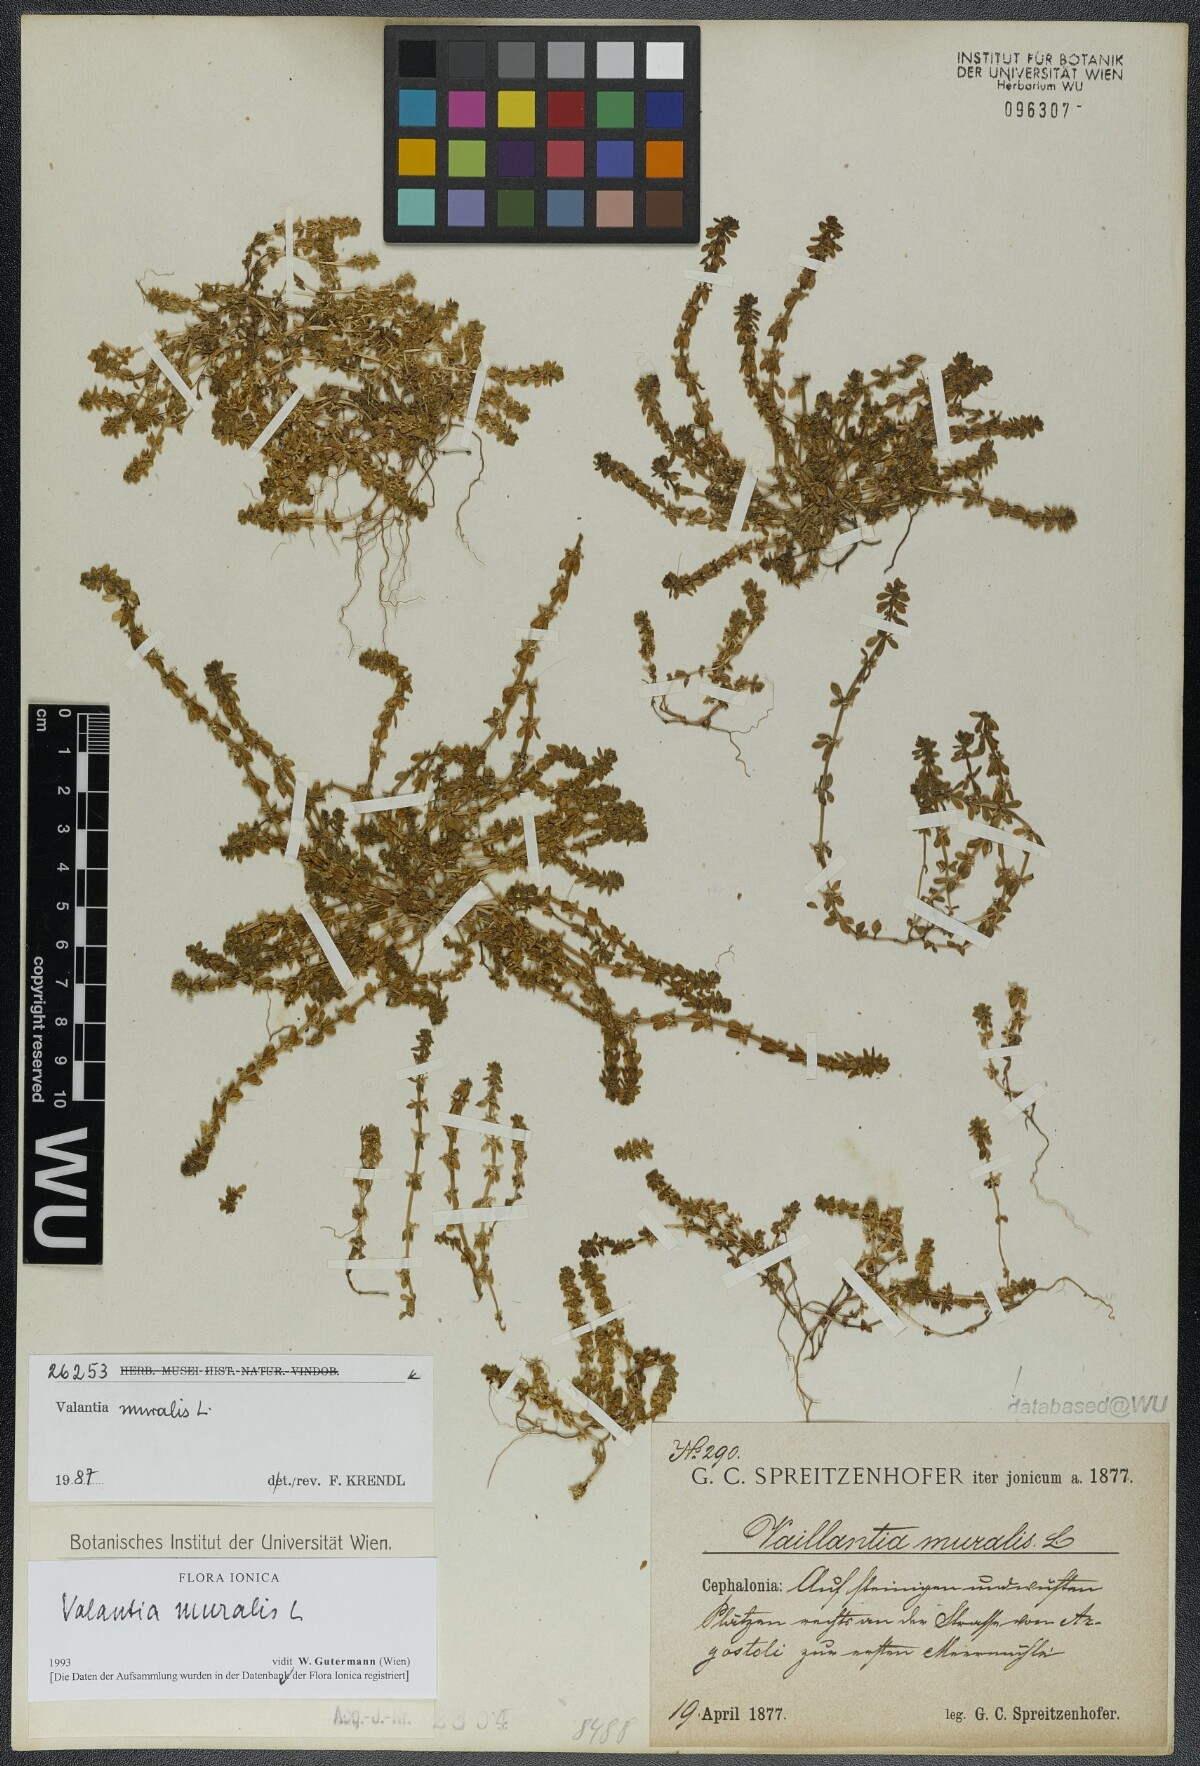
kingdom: Plantae
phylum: Tracheophyta
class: Magnoliopsida
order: Gentianales
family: Rubiaceae
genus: Valantia
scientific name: Valantia muralis
